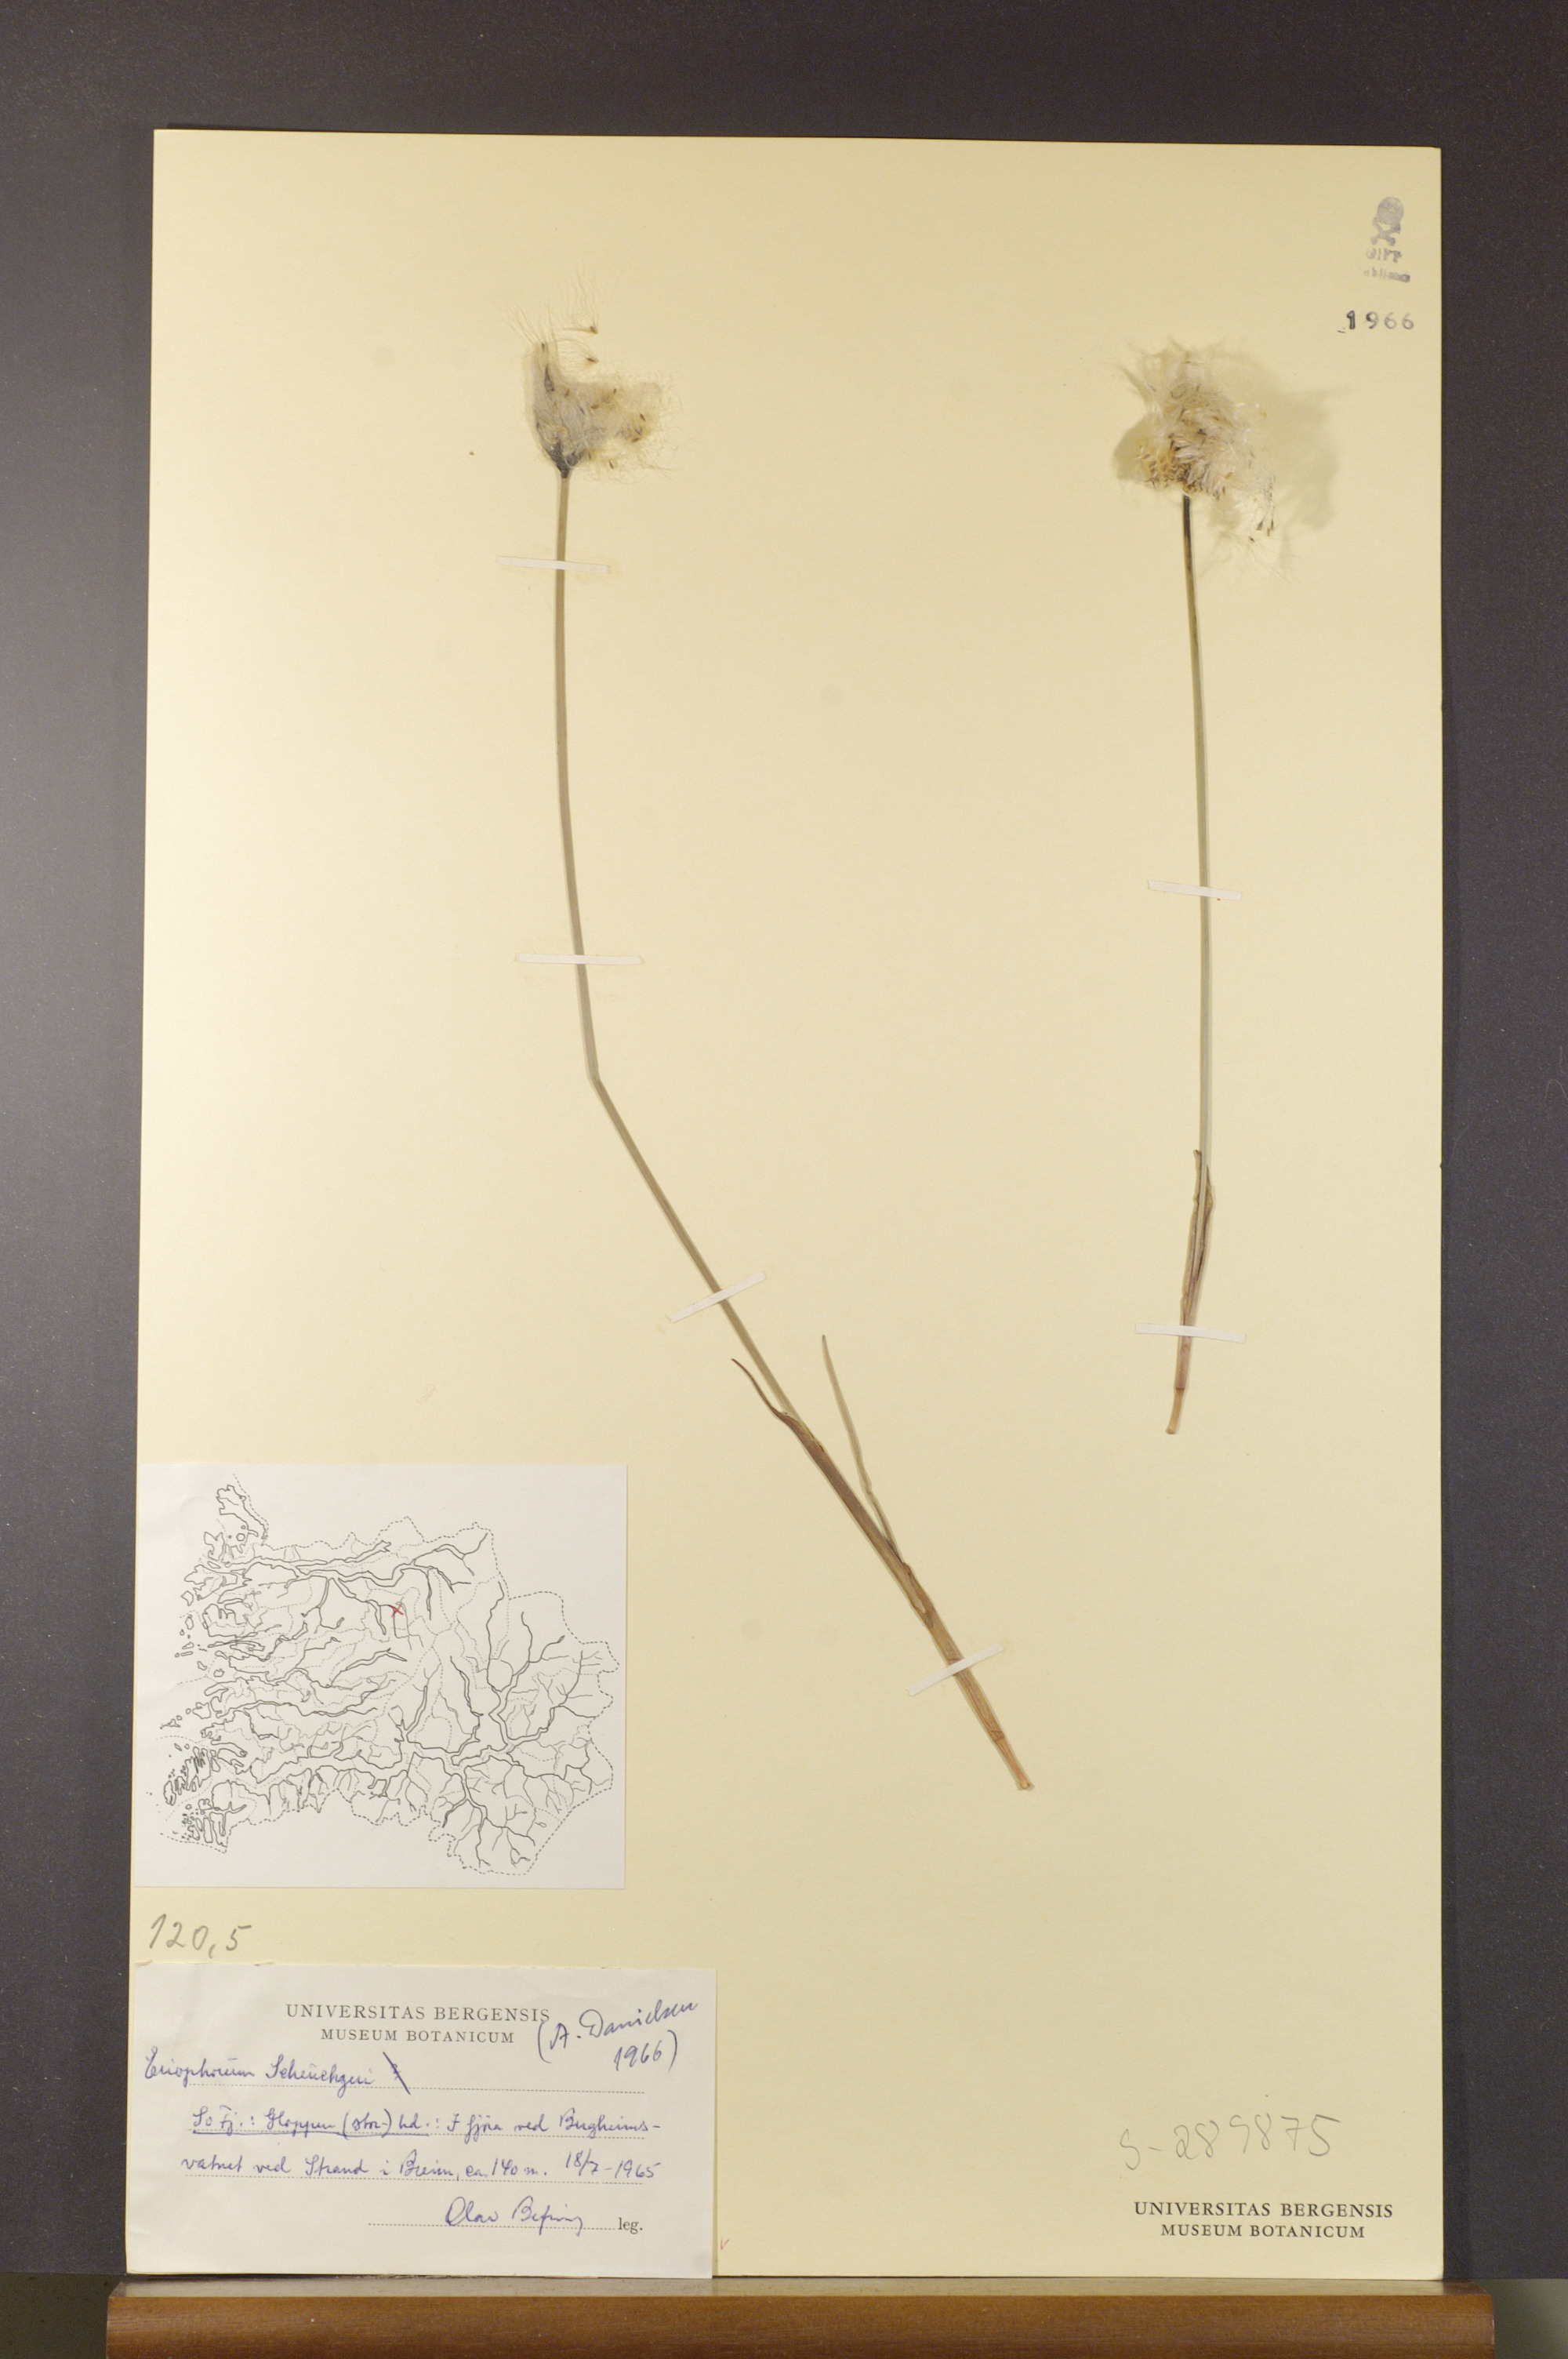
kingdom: Plantae
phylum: Tracheophyta
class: Liliopsida
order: Poales
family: Cyperaceae
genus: Eriophorum
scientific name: Eriophorum scheuchzeri
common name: Scheuchzer's cottongrass
